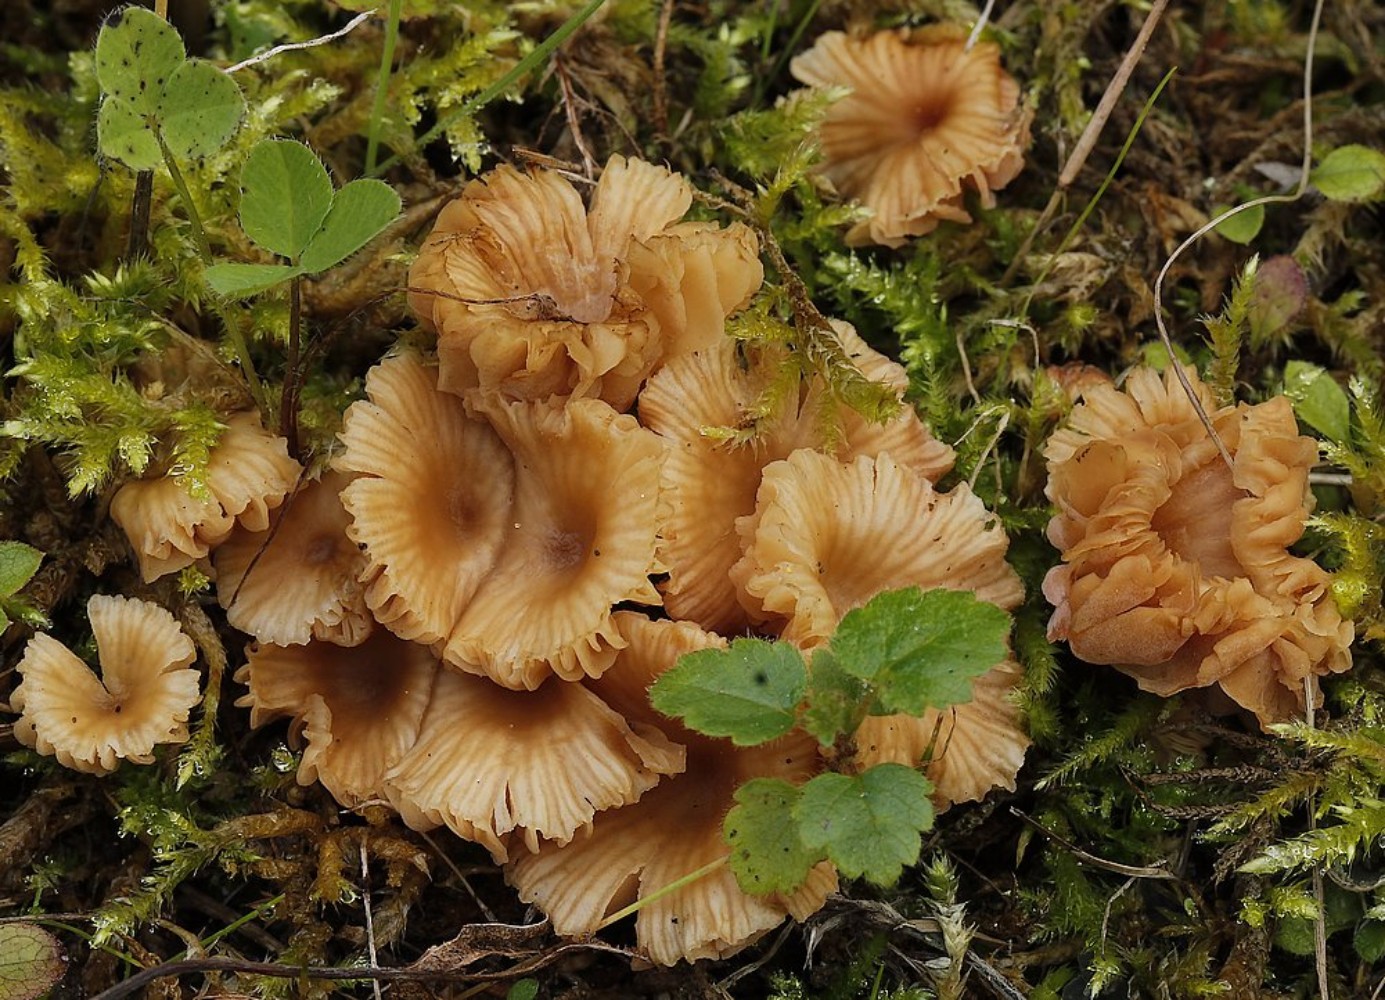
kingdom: Fungi
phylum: Basidiomycota
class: Agaricomycetes
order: Agaricales
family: Hydnangiaceae
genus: Laccaria
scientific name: Laccaria tortilis
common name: krybende ametysthat
